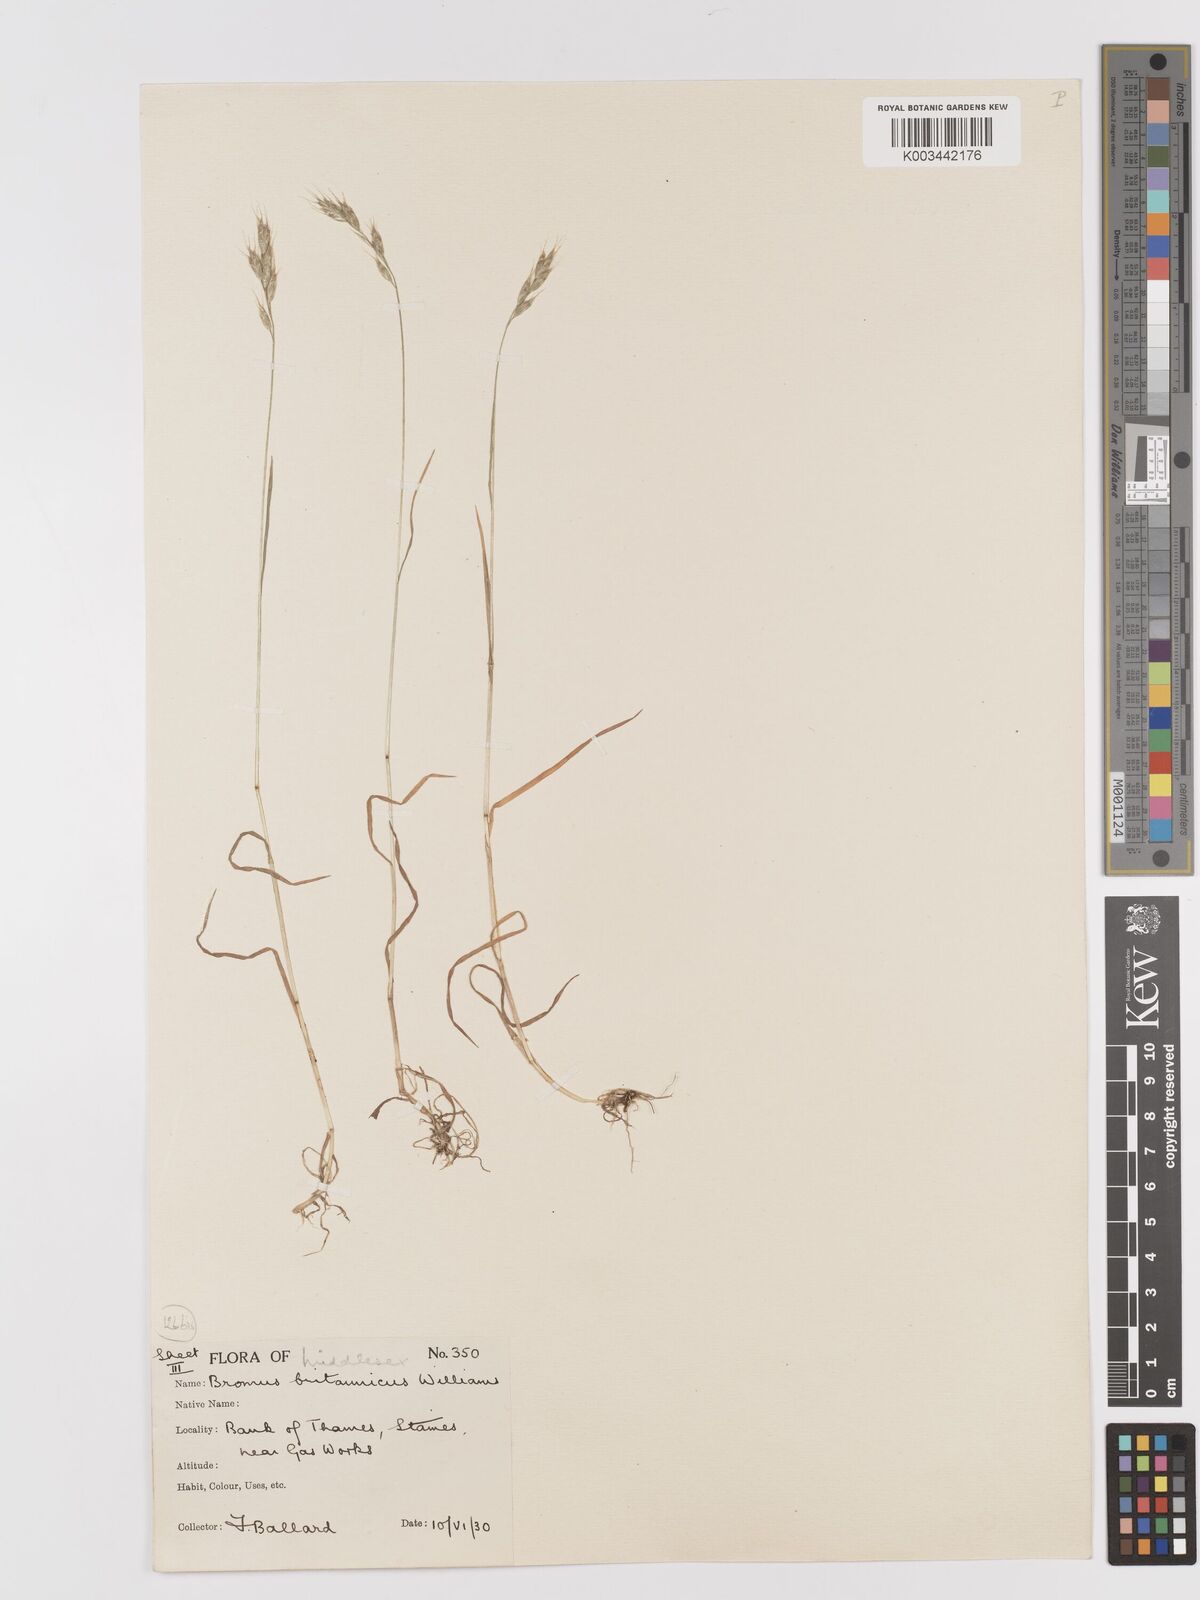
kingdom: Plantae
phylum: Tracheophyta
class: Liliopsida
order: Poales
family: Poaceae
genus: Bromus
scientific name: Bromus lepidus
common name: Slender soft-brome
